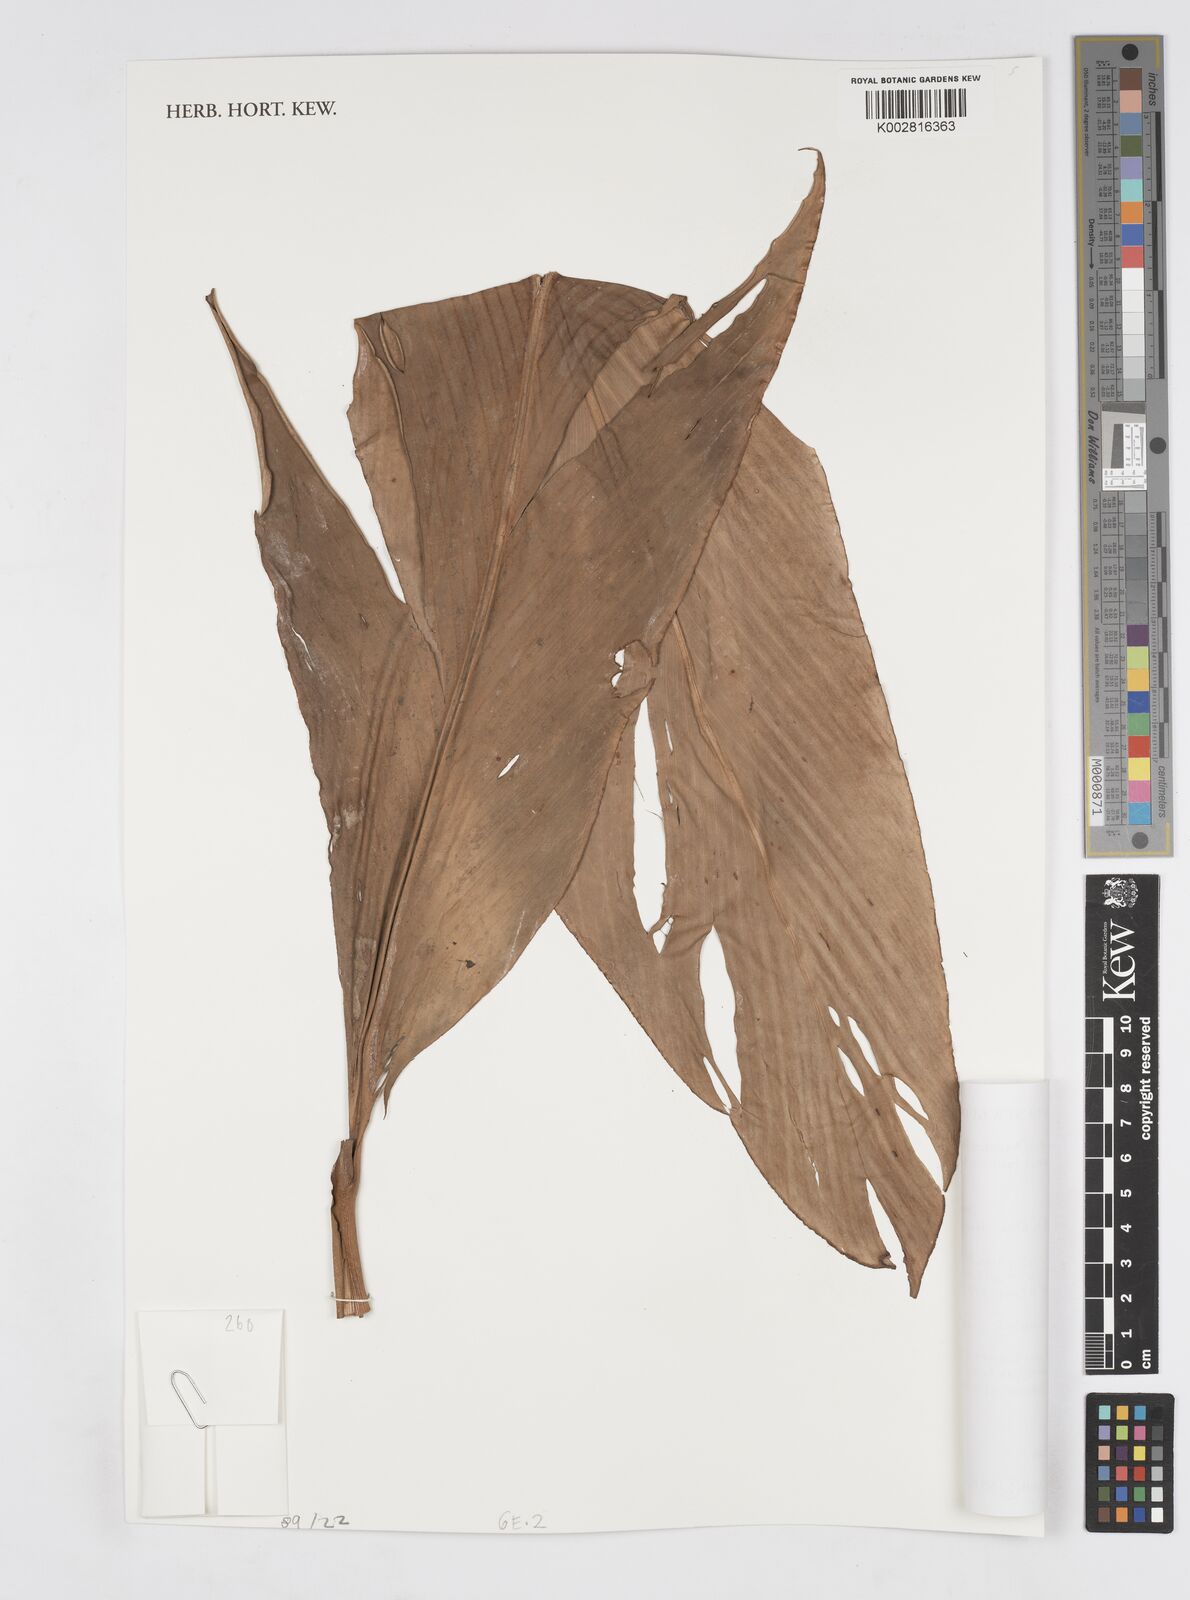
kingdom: Plantae
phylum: Tracheophyta
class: Liliopsida
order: Zingiberales
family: Zingiberaceae
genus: Alpinia
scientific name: Alpinia oceanica
